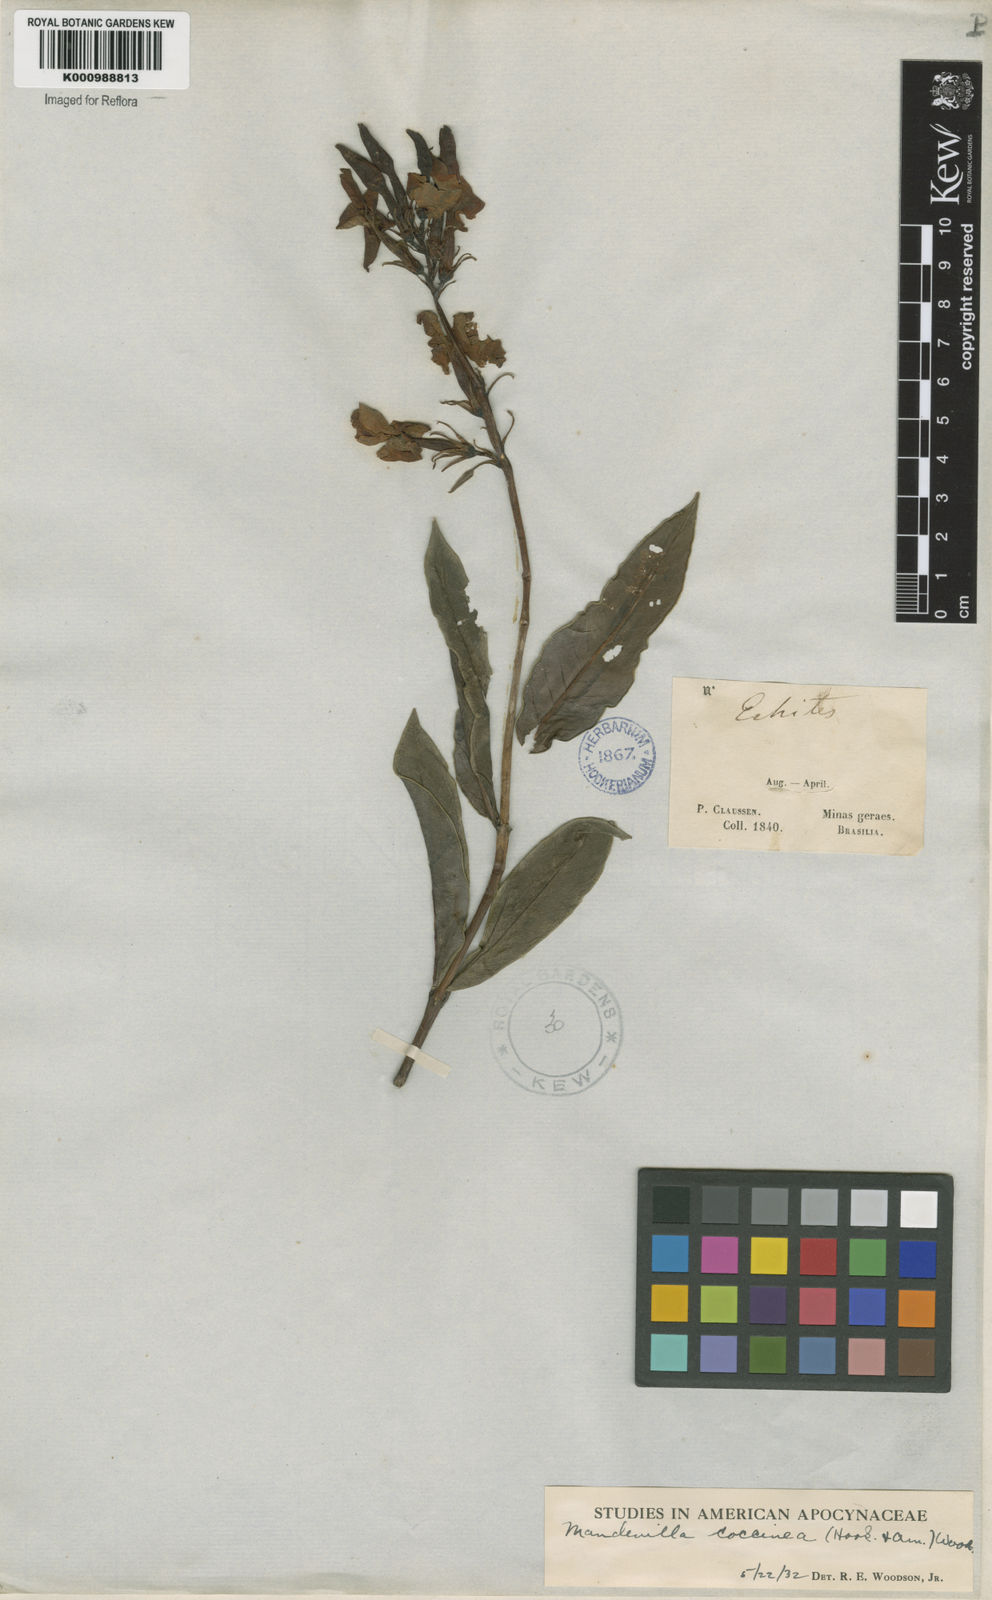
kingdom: Plantae
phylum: Tracheophyta
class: Magnoliopsida
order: Gentianales
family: Apocynaceae
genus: Mandevilla
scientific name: Mandevilla
